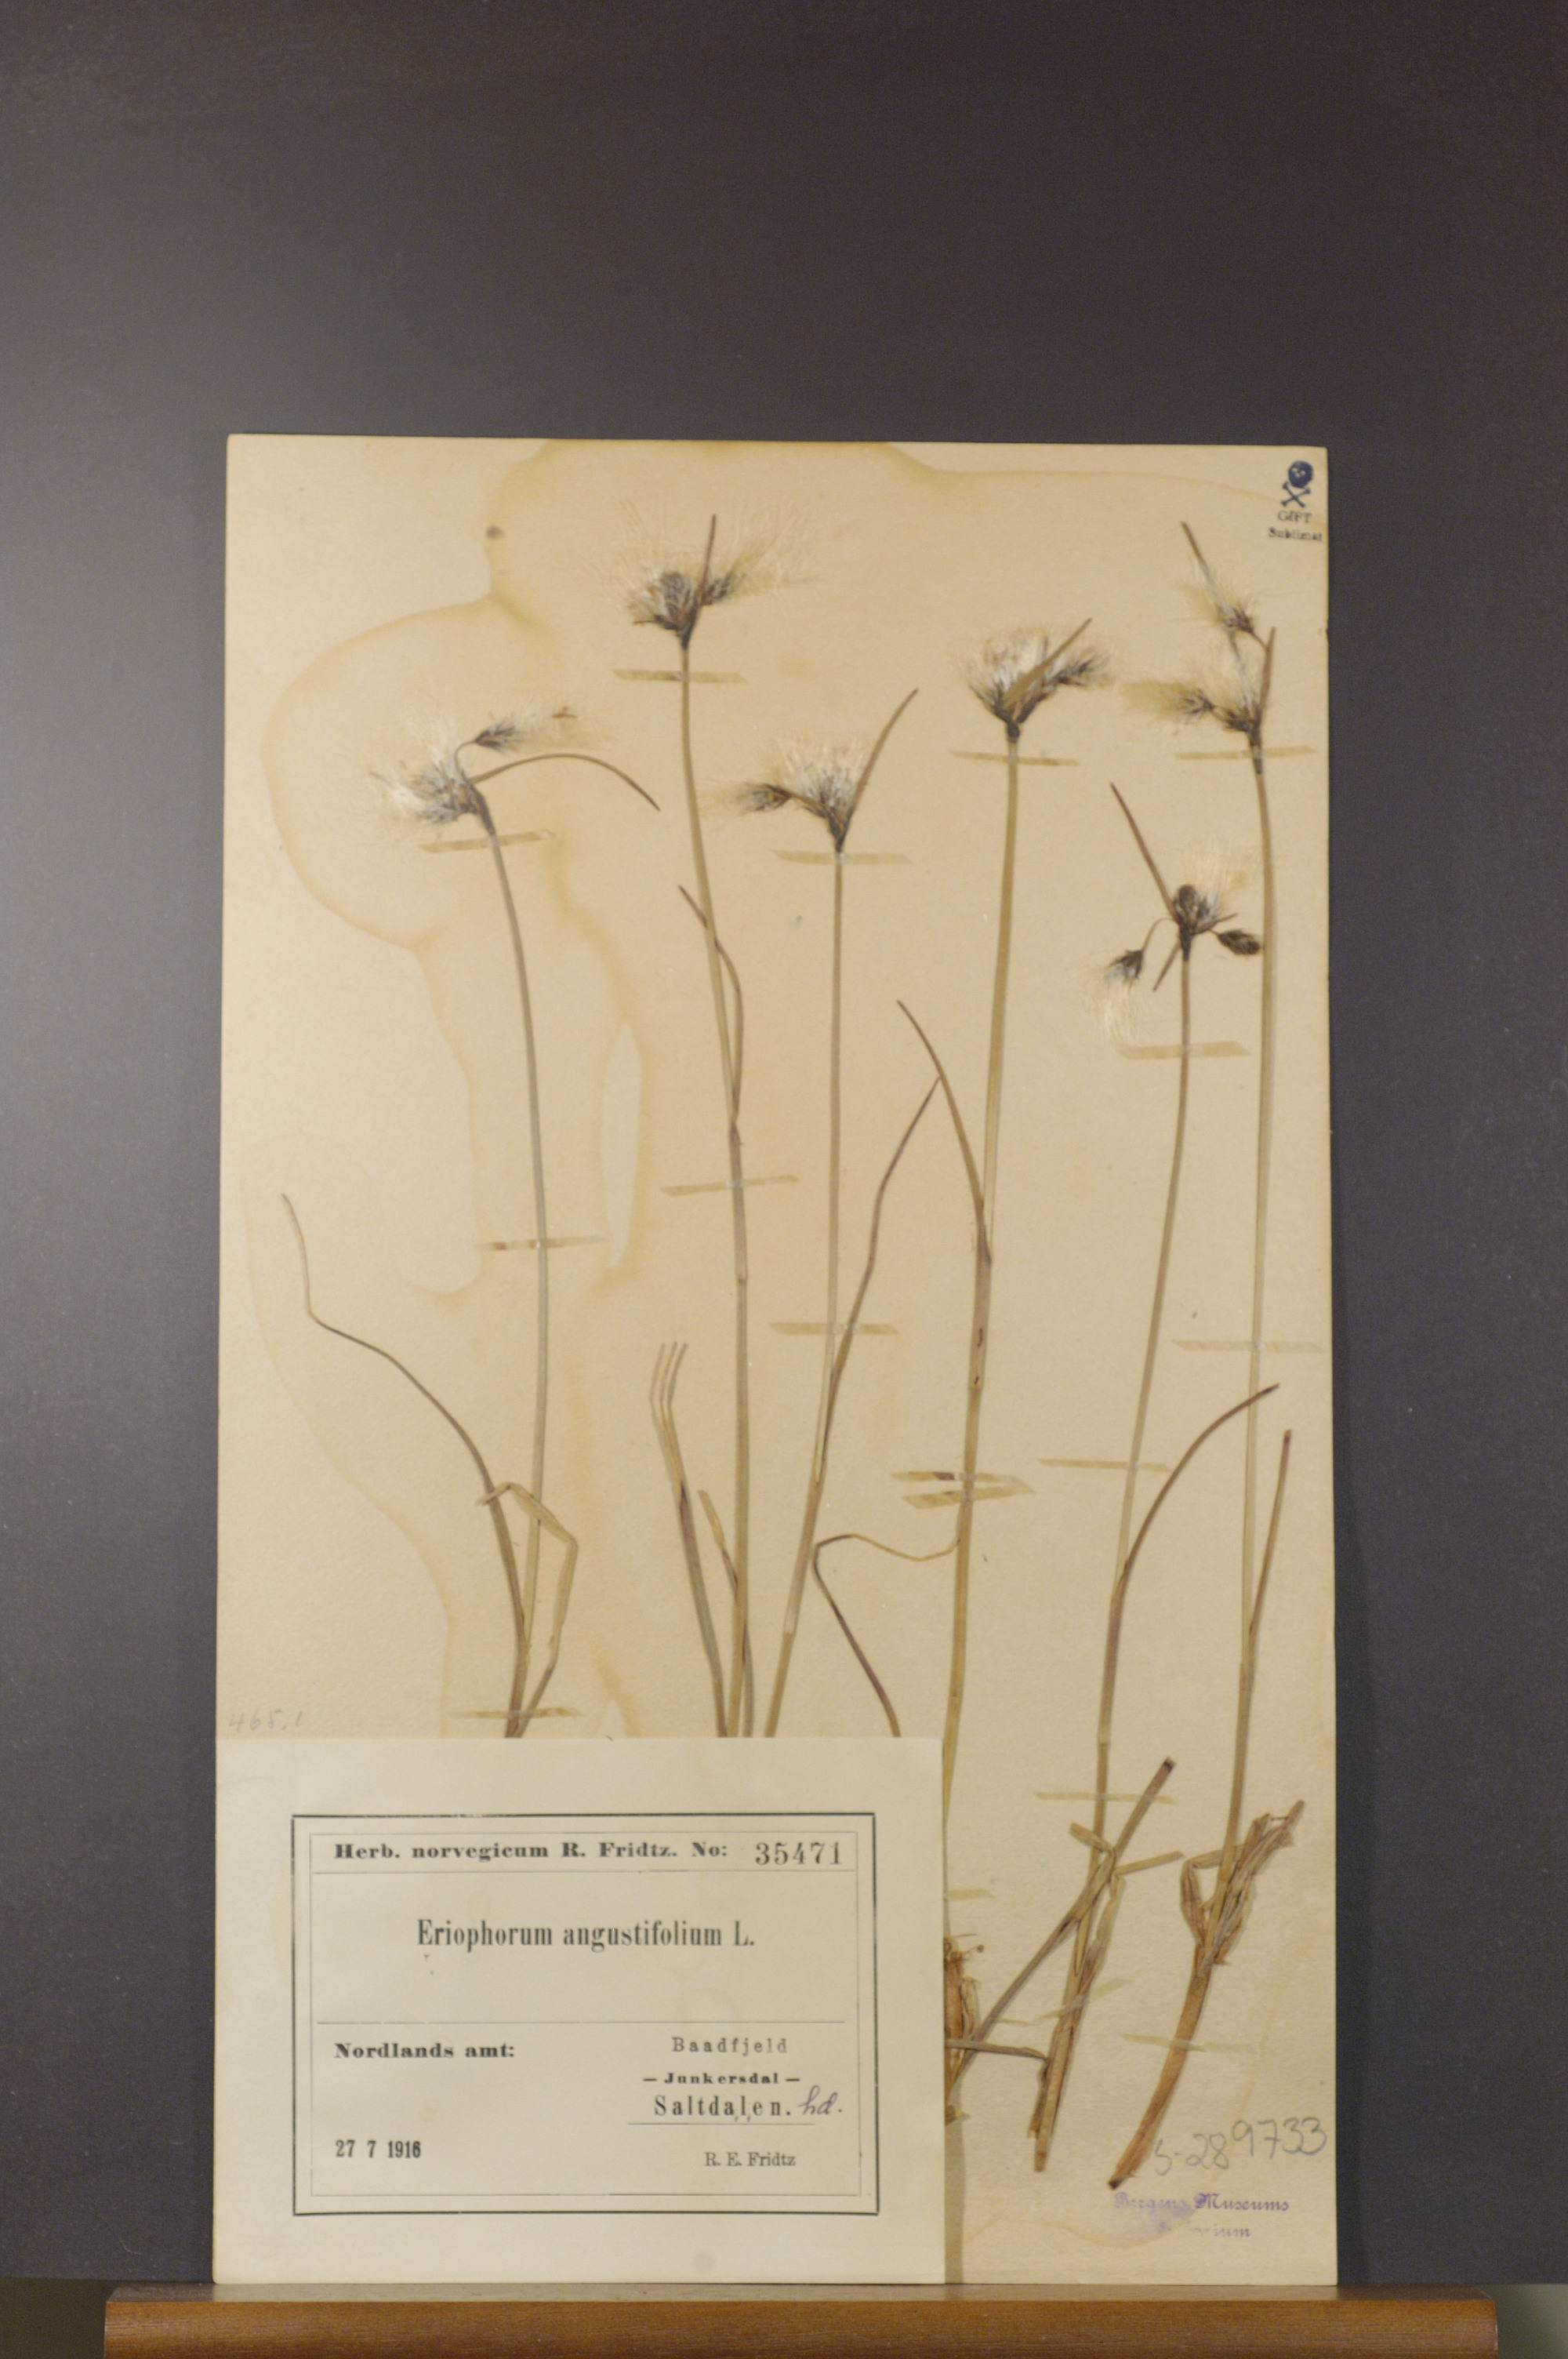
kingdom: Plantae
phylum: Tracheophyta
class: Liliopsida
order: Poales
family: Cyperaceae
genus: Eriophorum
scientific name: Eriophorum angustifolium
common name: Common cottongrass
